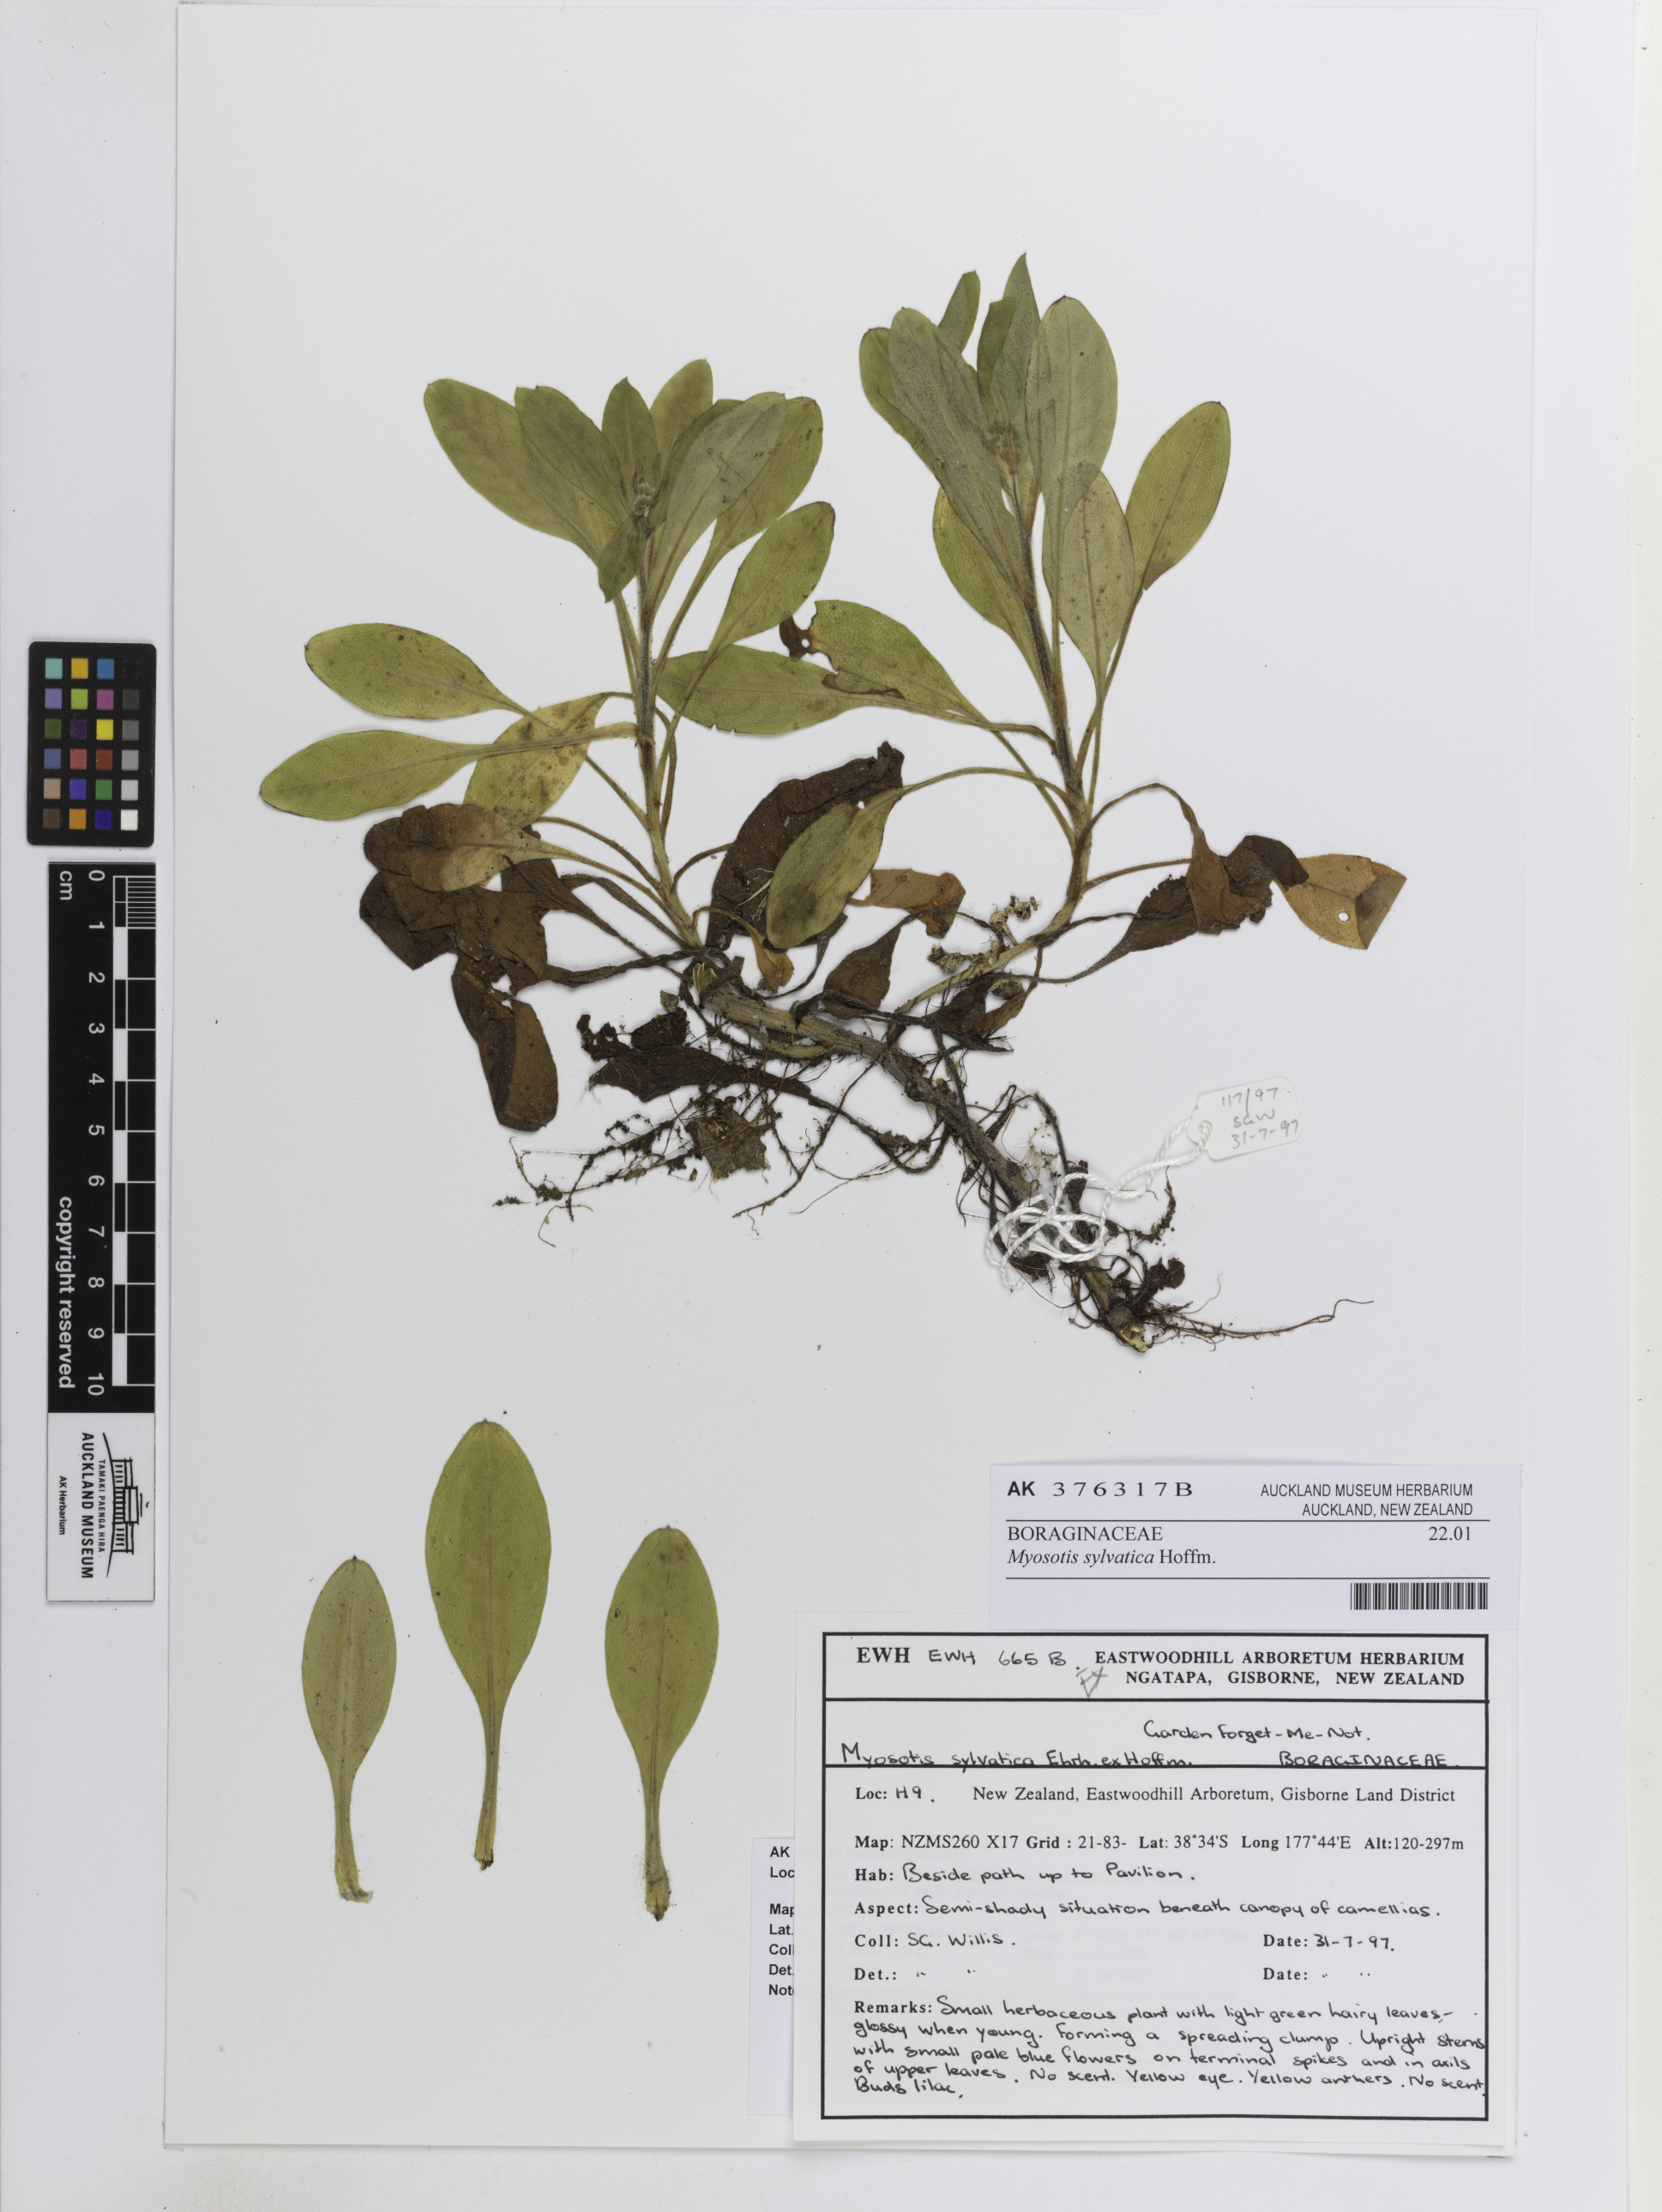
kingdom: Plantae
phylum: Tracheophyta
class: Magnoliopsida
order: Boraginales
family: Boraginaceae
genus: Myosotis
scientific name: Myosotis sylvatica
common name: Wood forget-me-not
